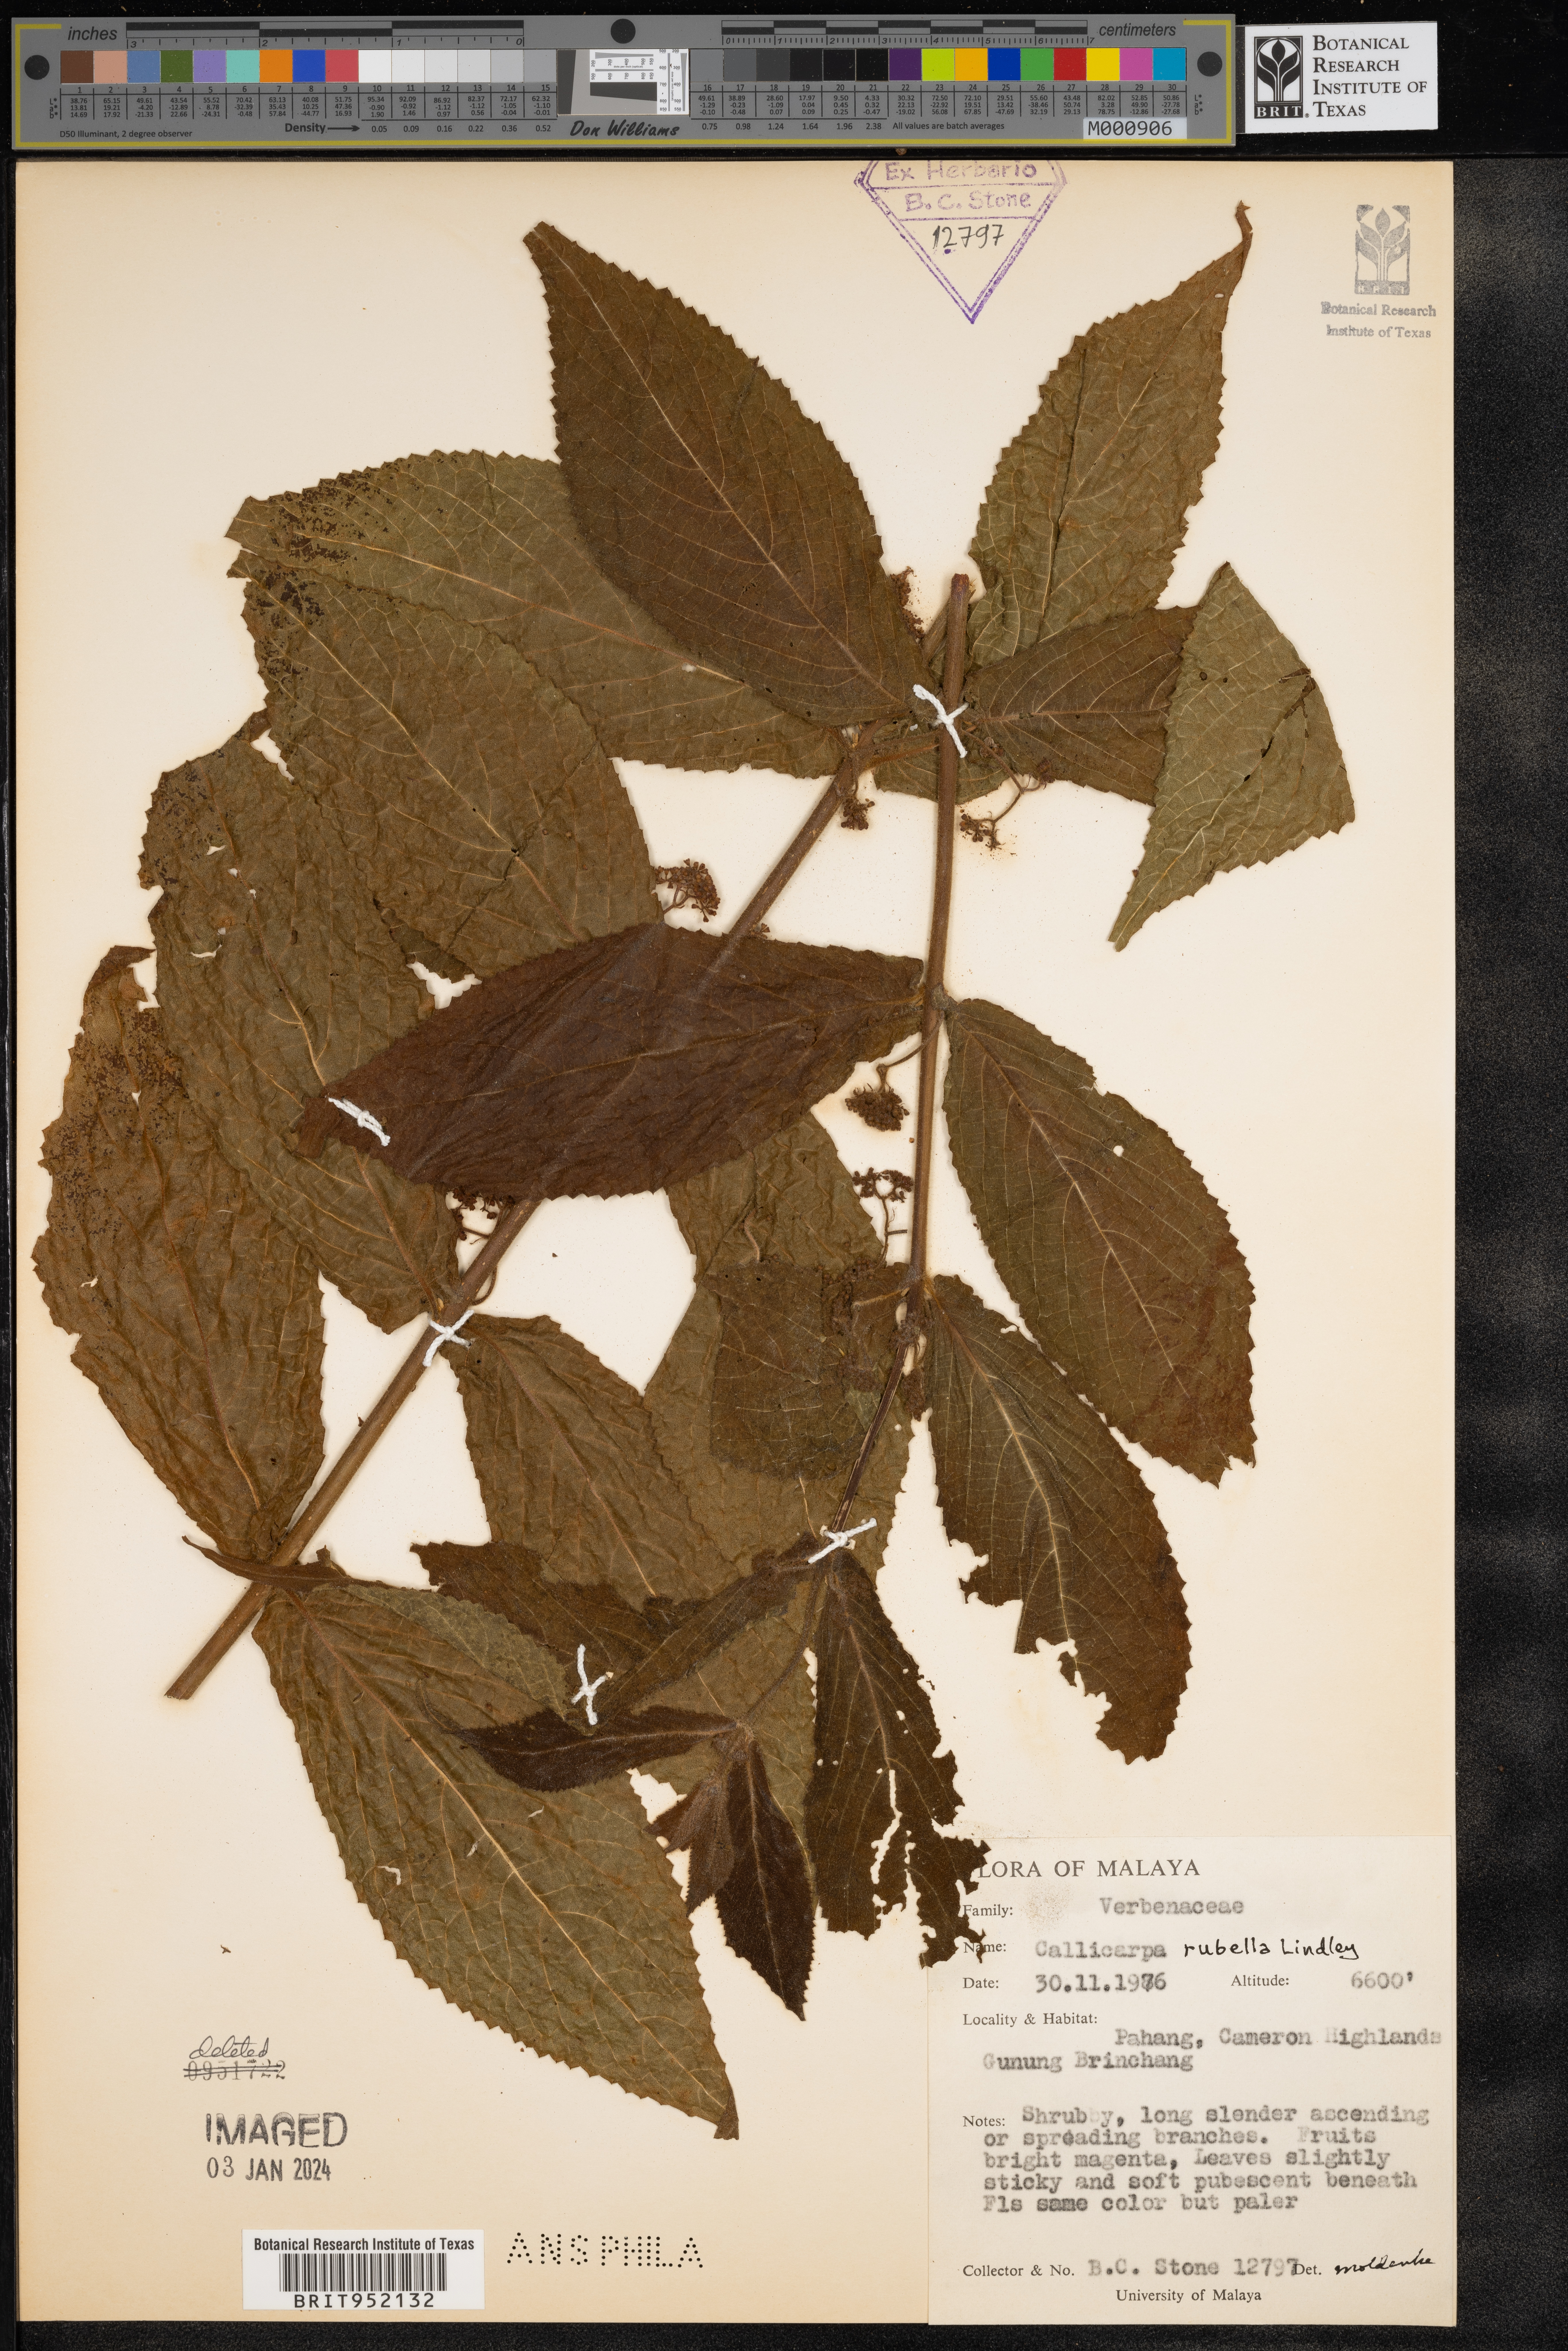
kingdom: Plantae
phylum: Tracheophyta
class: Magnoliopsida
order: Lamiales
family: Lamiaceae
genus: Callicarpa
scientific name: Callicarpa
